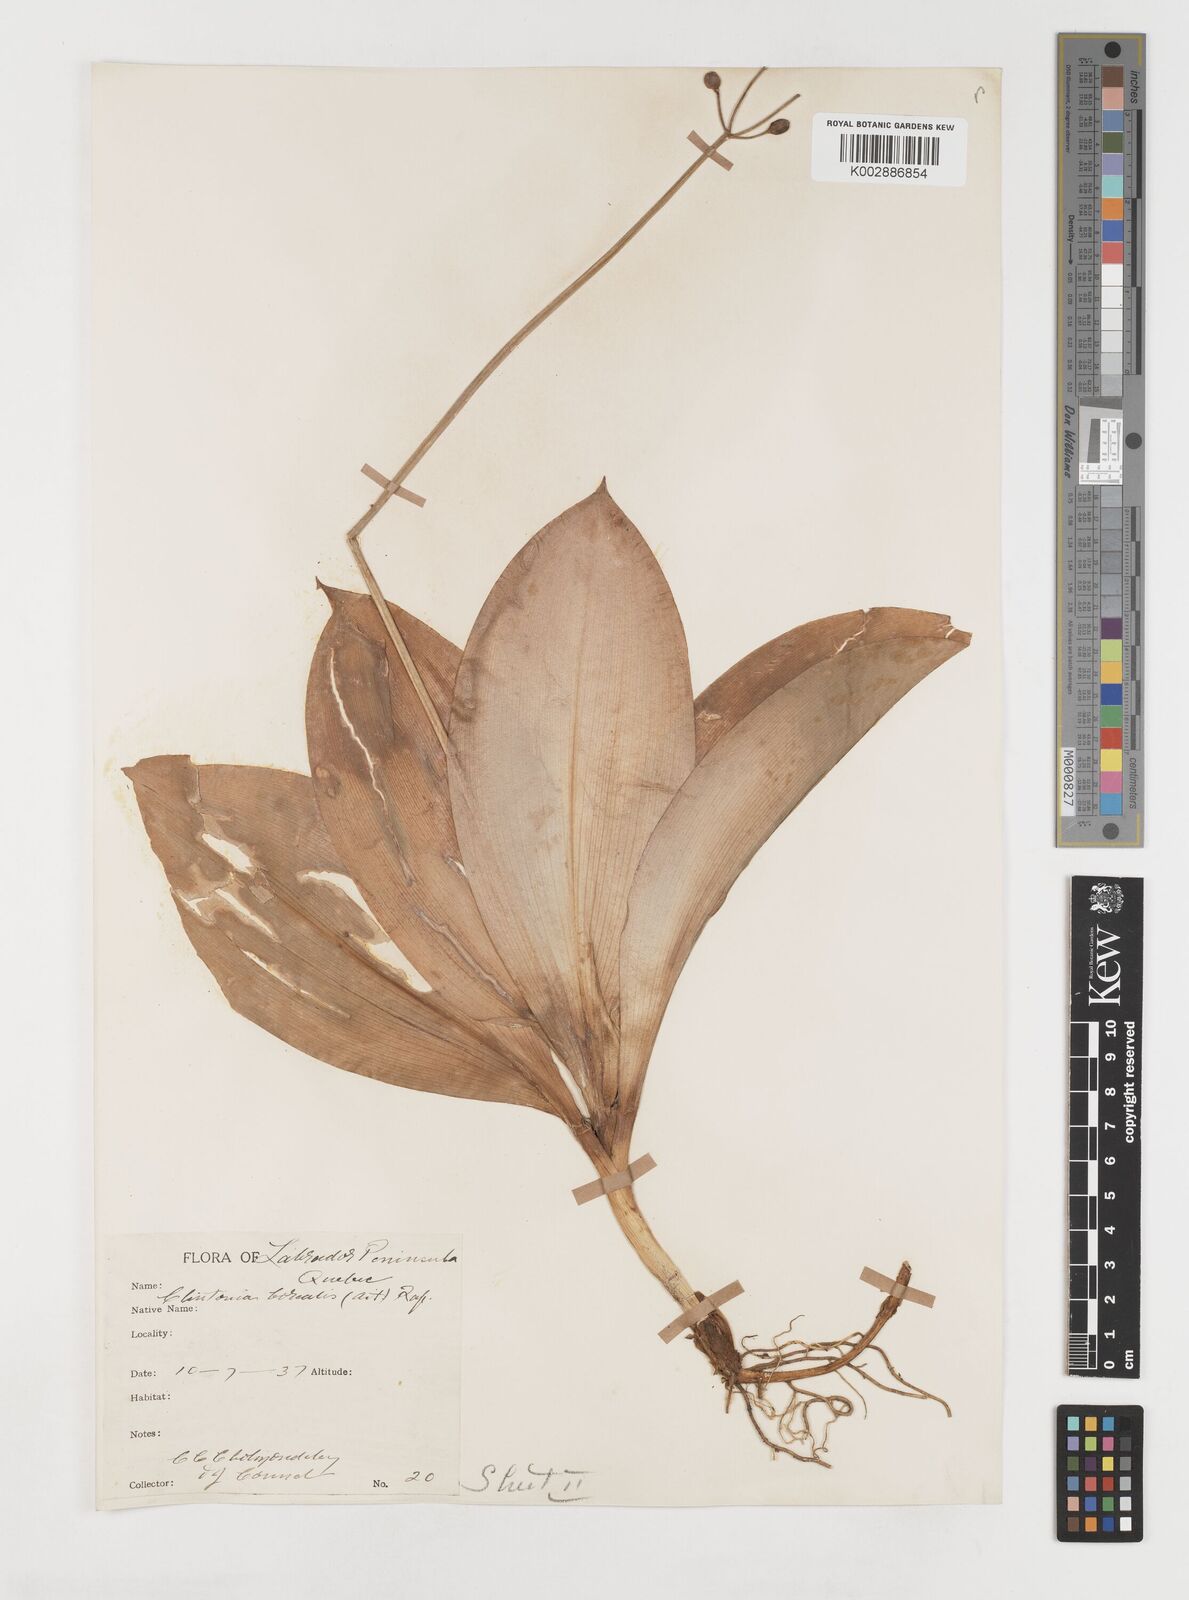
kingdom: Plantae
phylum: Tracheophyta
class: Liliopsida
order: Liliales
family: Liliaceae
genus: Clintonia
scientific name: Clintonia borealis
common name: Yellow clintonia
